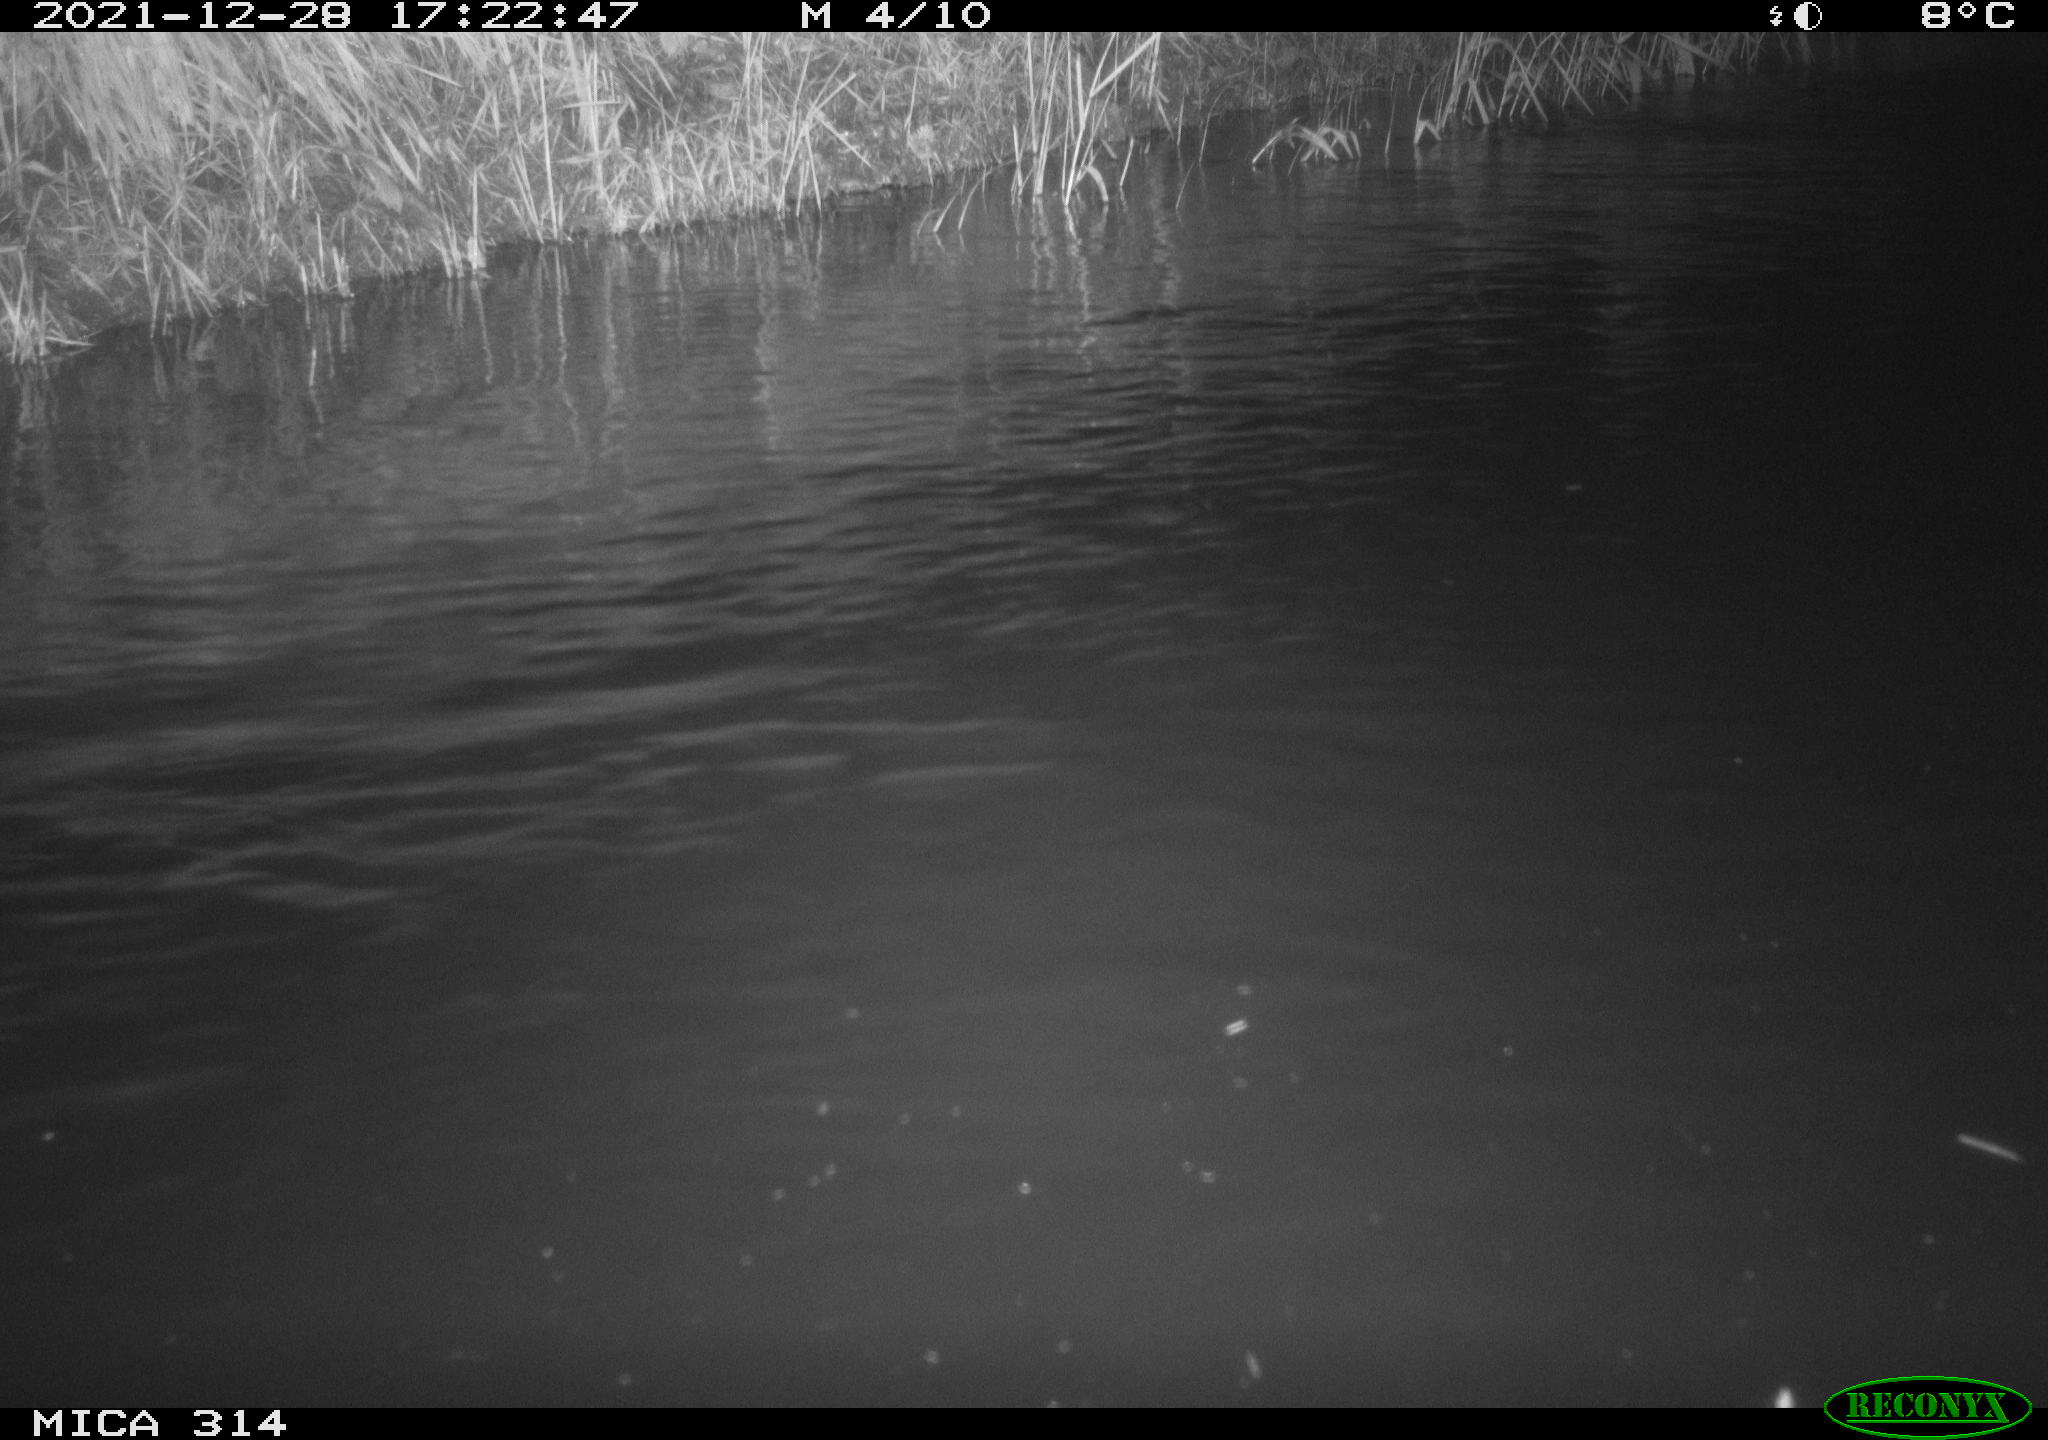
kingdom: Animalia
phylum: Chordata
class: Aves
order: Gruiformes
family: Rallidae
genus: Gallinula
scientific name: Gallinula chloropus
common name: Common moorhen
